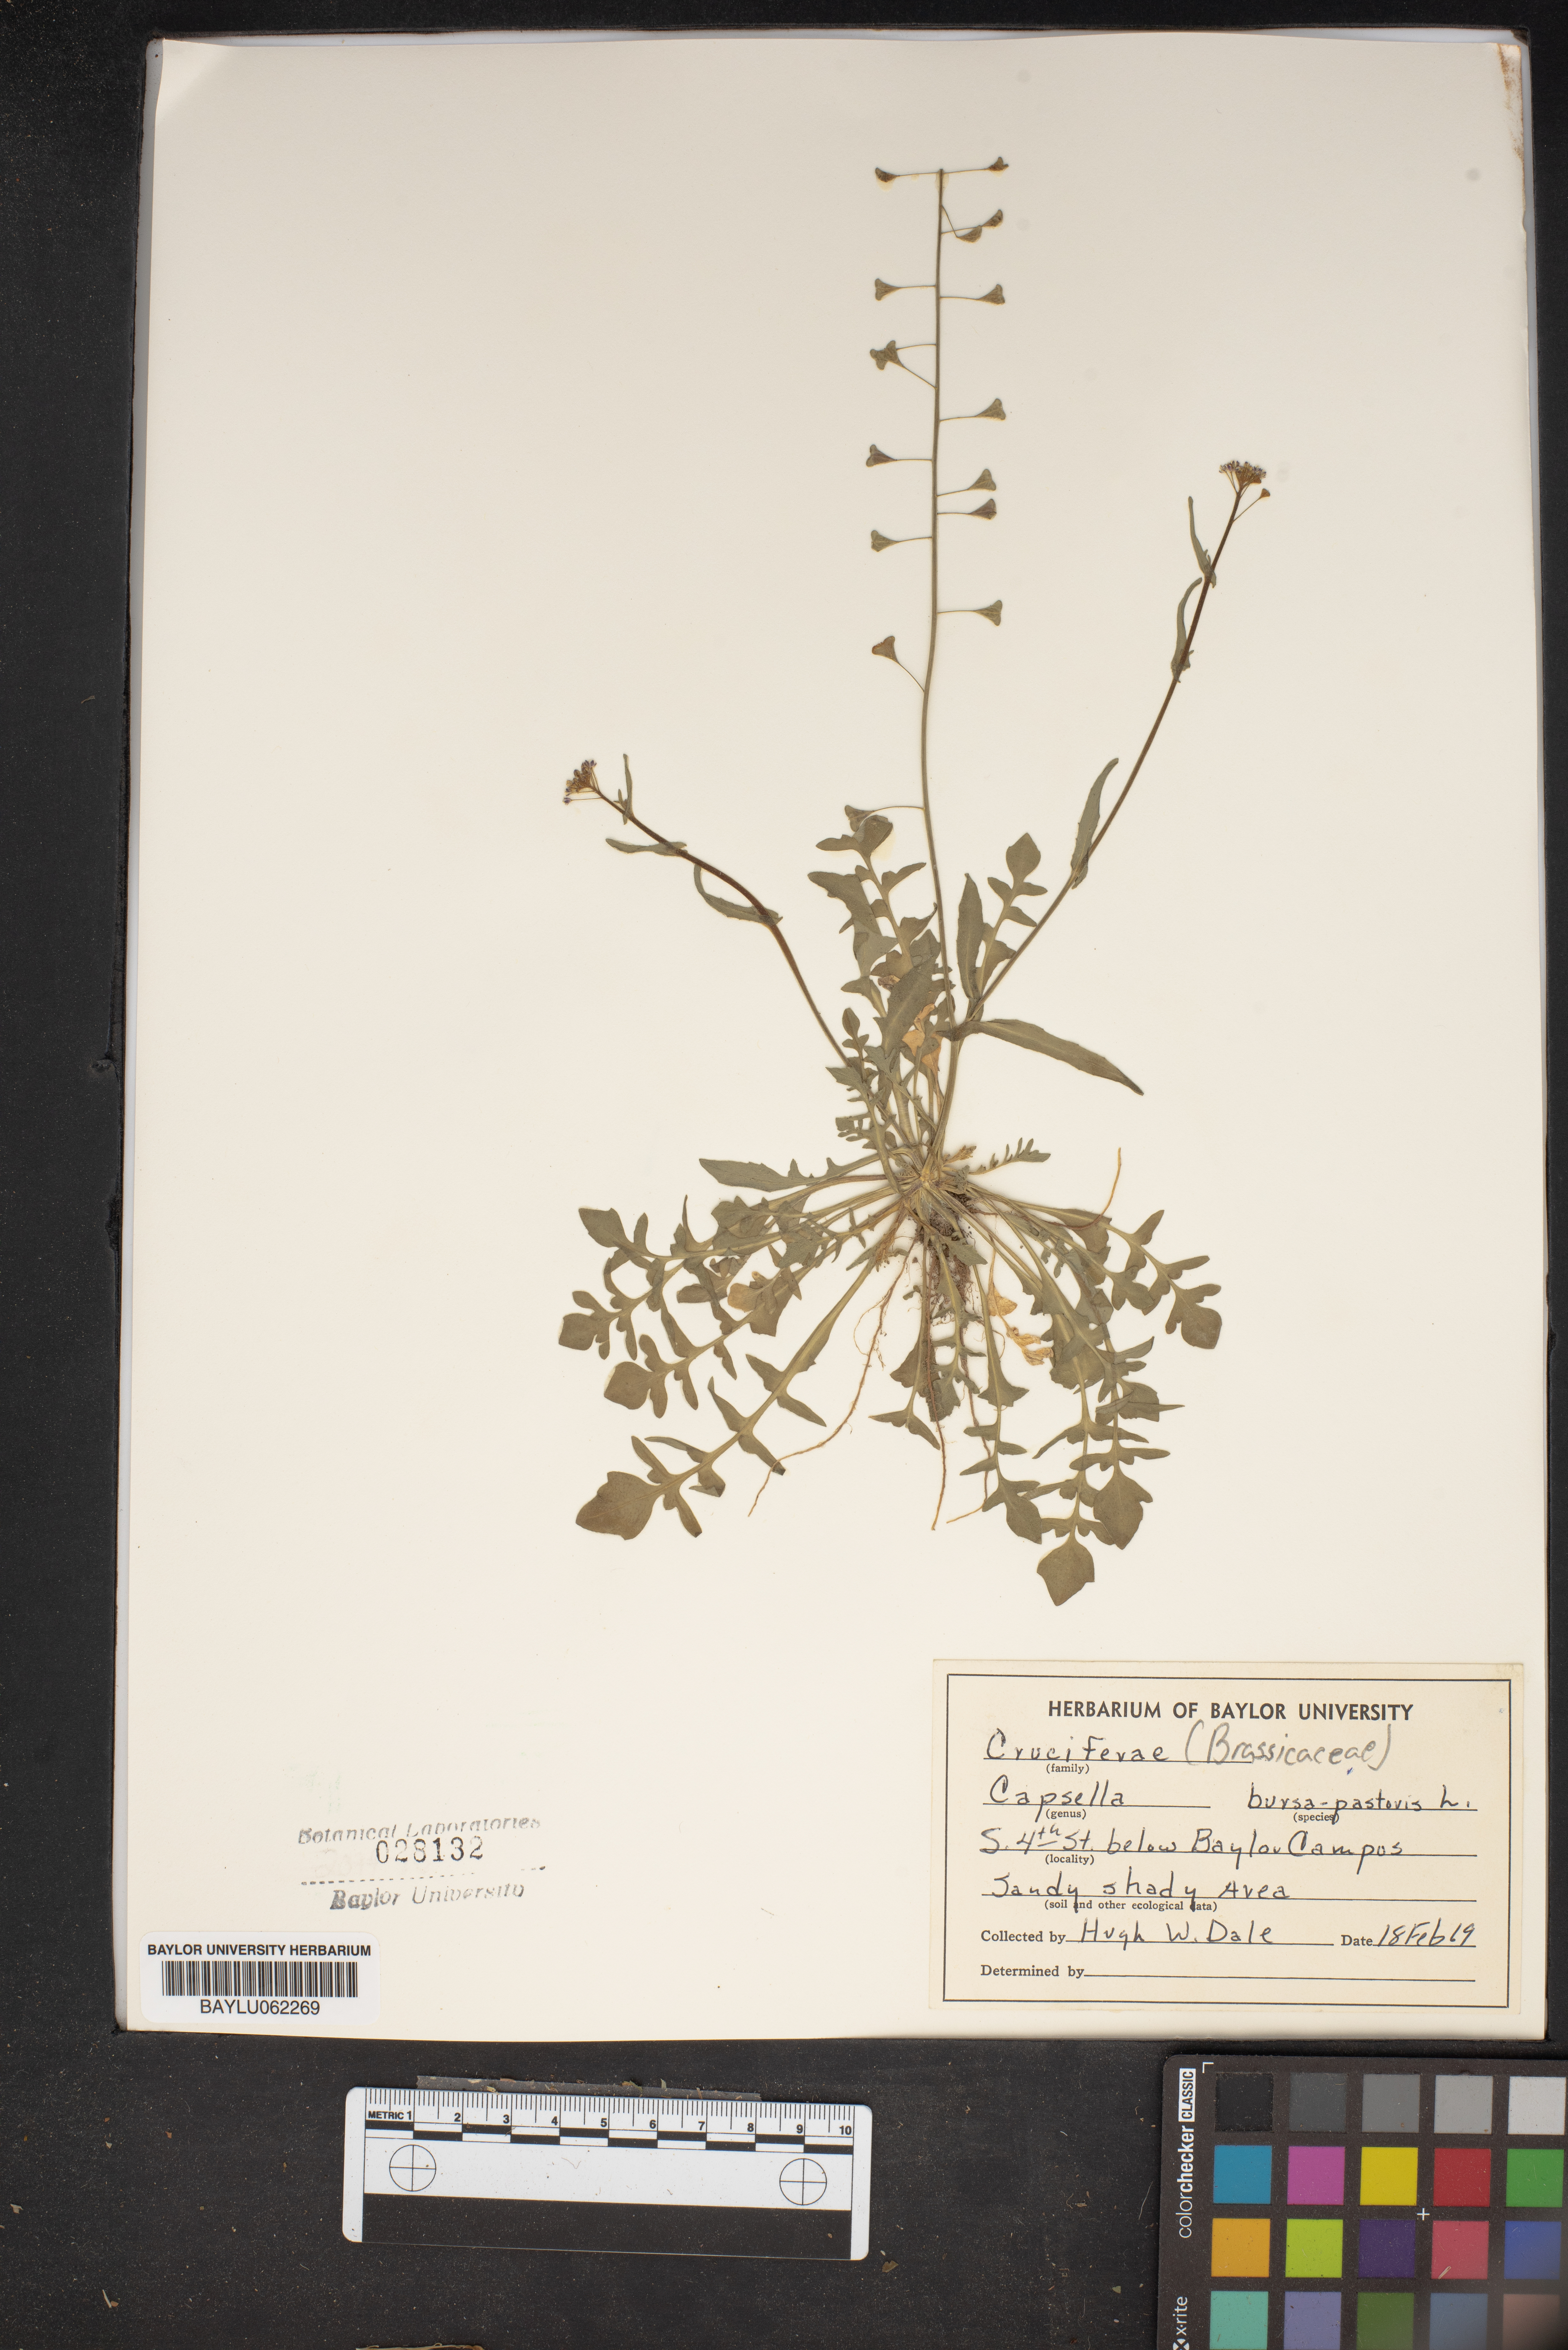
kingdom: Plantae
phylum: Tracheophyta
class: Magnoliopsida
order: Brassicales
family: Brassicaceae
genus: Capsella
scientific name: Capsella bursa-pastoris
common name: Shepherd's purse
